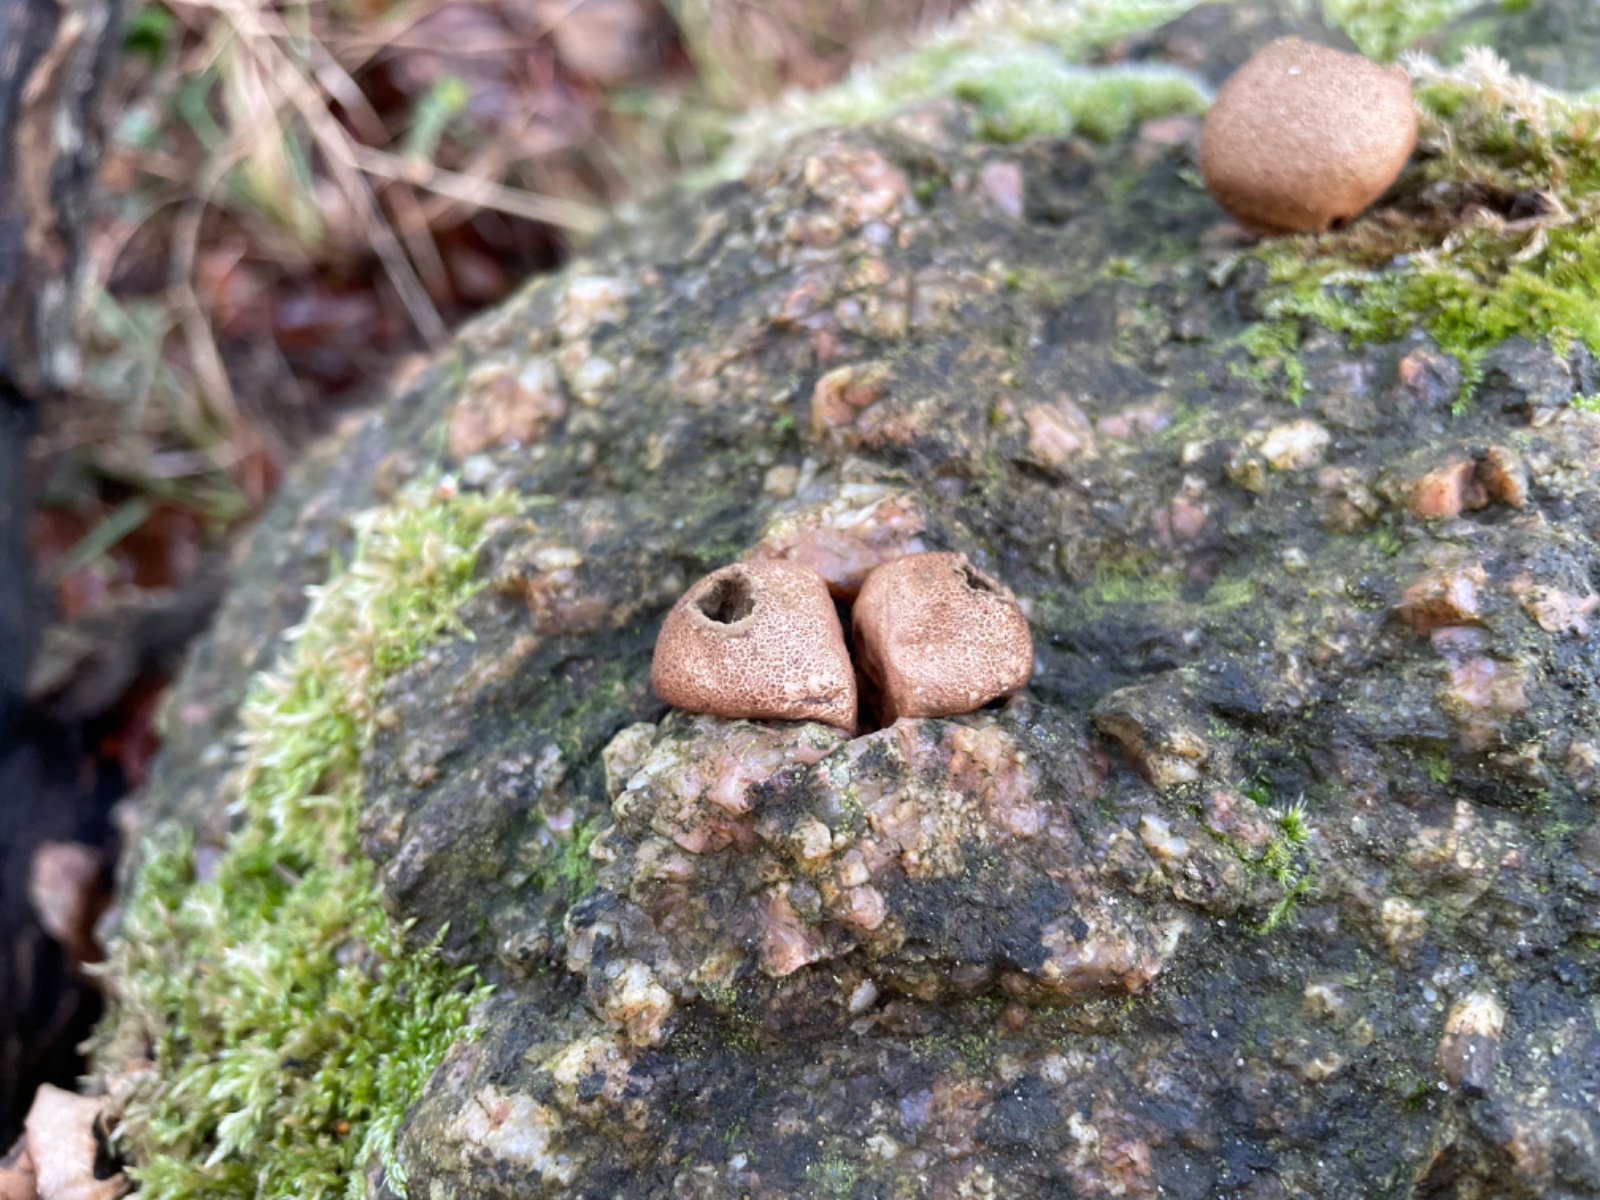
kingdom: Fungi
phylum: Basidiomycota
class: Agaricomycetes
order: Agaricales
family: Lycoperdaceae
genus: Apioperdon
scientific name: Apioperdon pyriforme
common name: pære-støvbold
